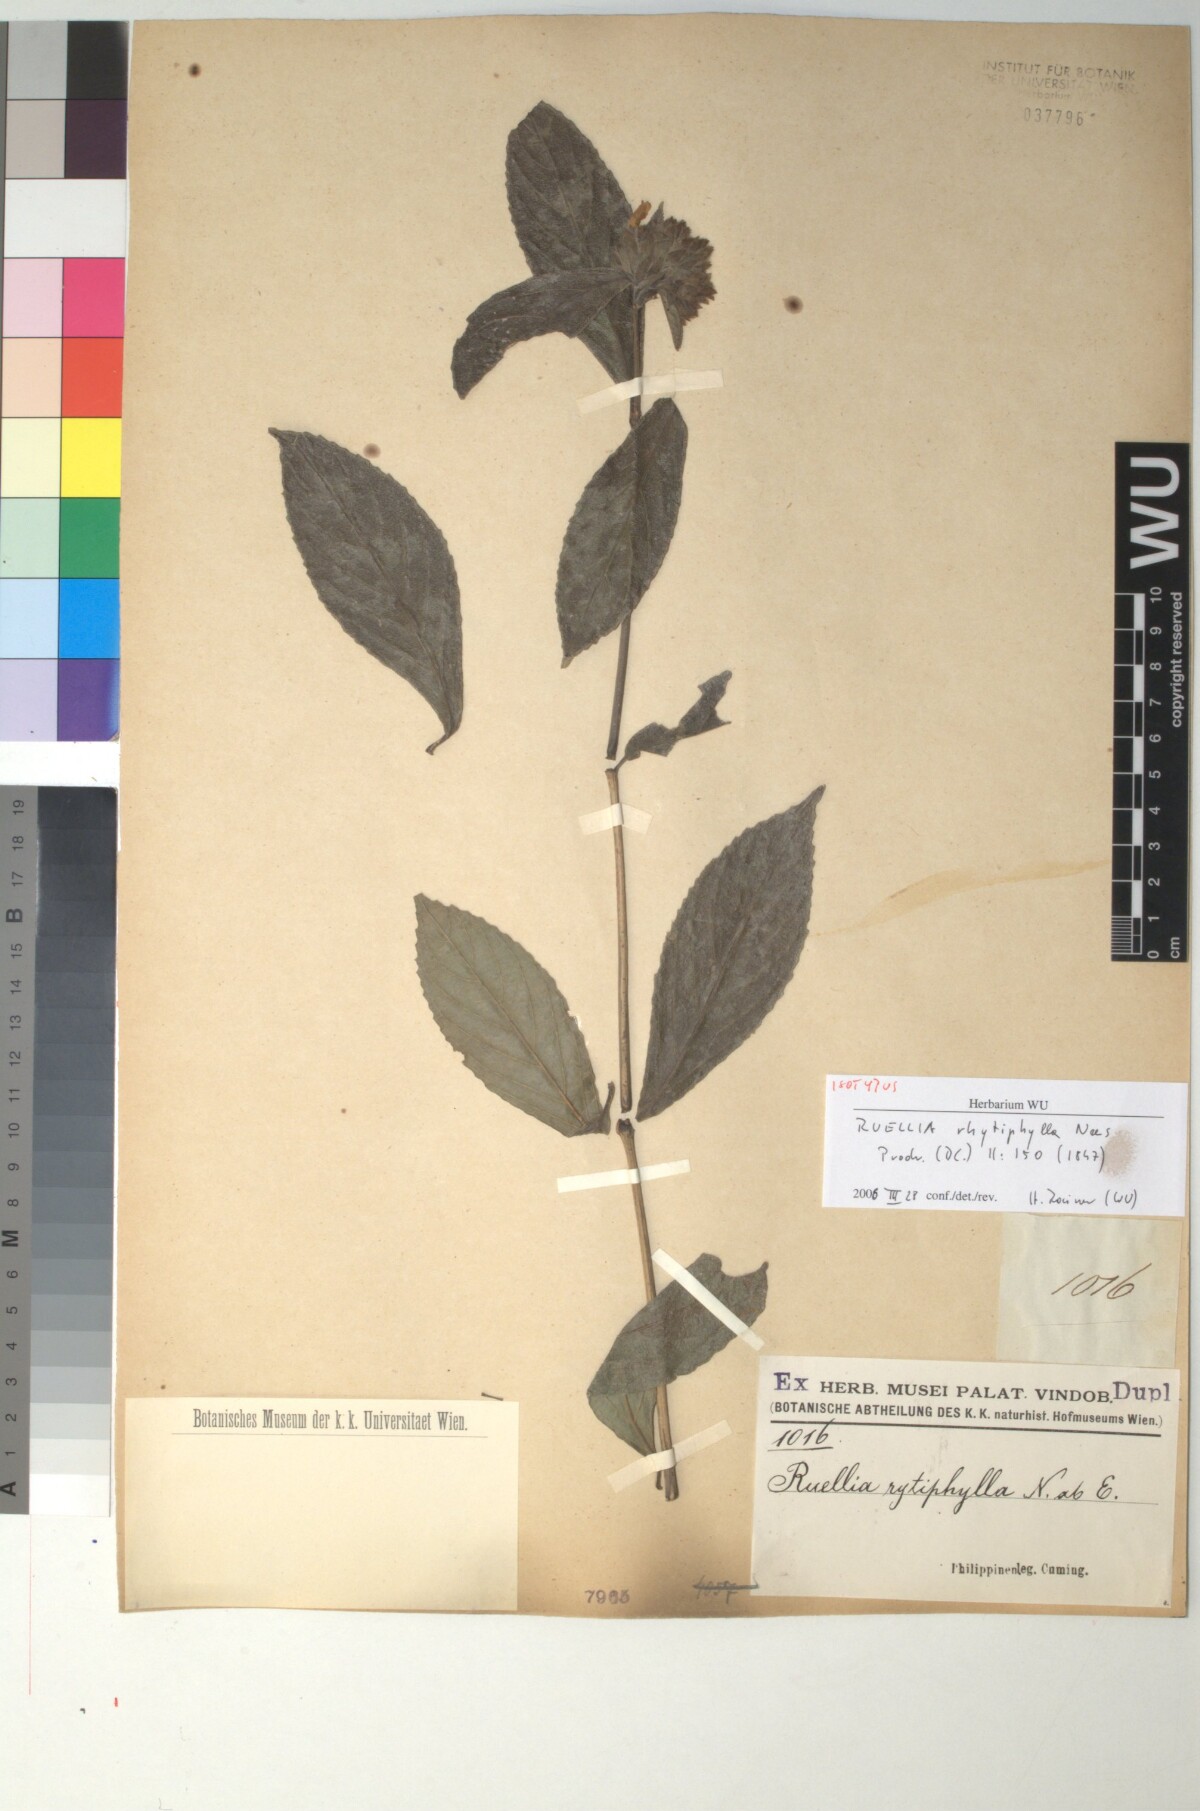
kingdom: Plantae
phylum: Tracheophyta
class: Magnoliopsida
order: Lamiales
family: Acanthaceae
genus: Strobilanthes
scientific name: Strobilanthes rhytiphylla
